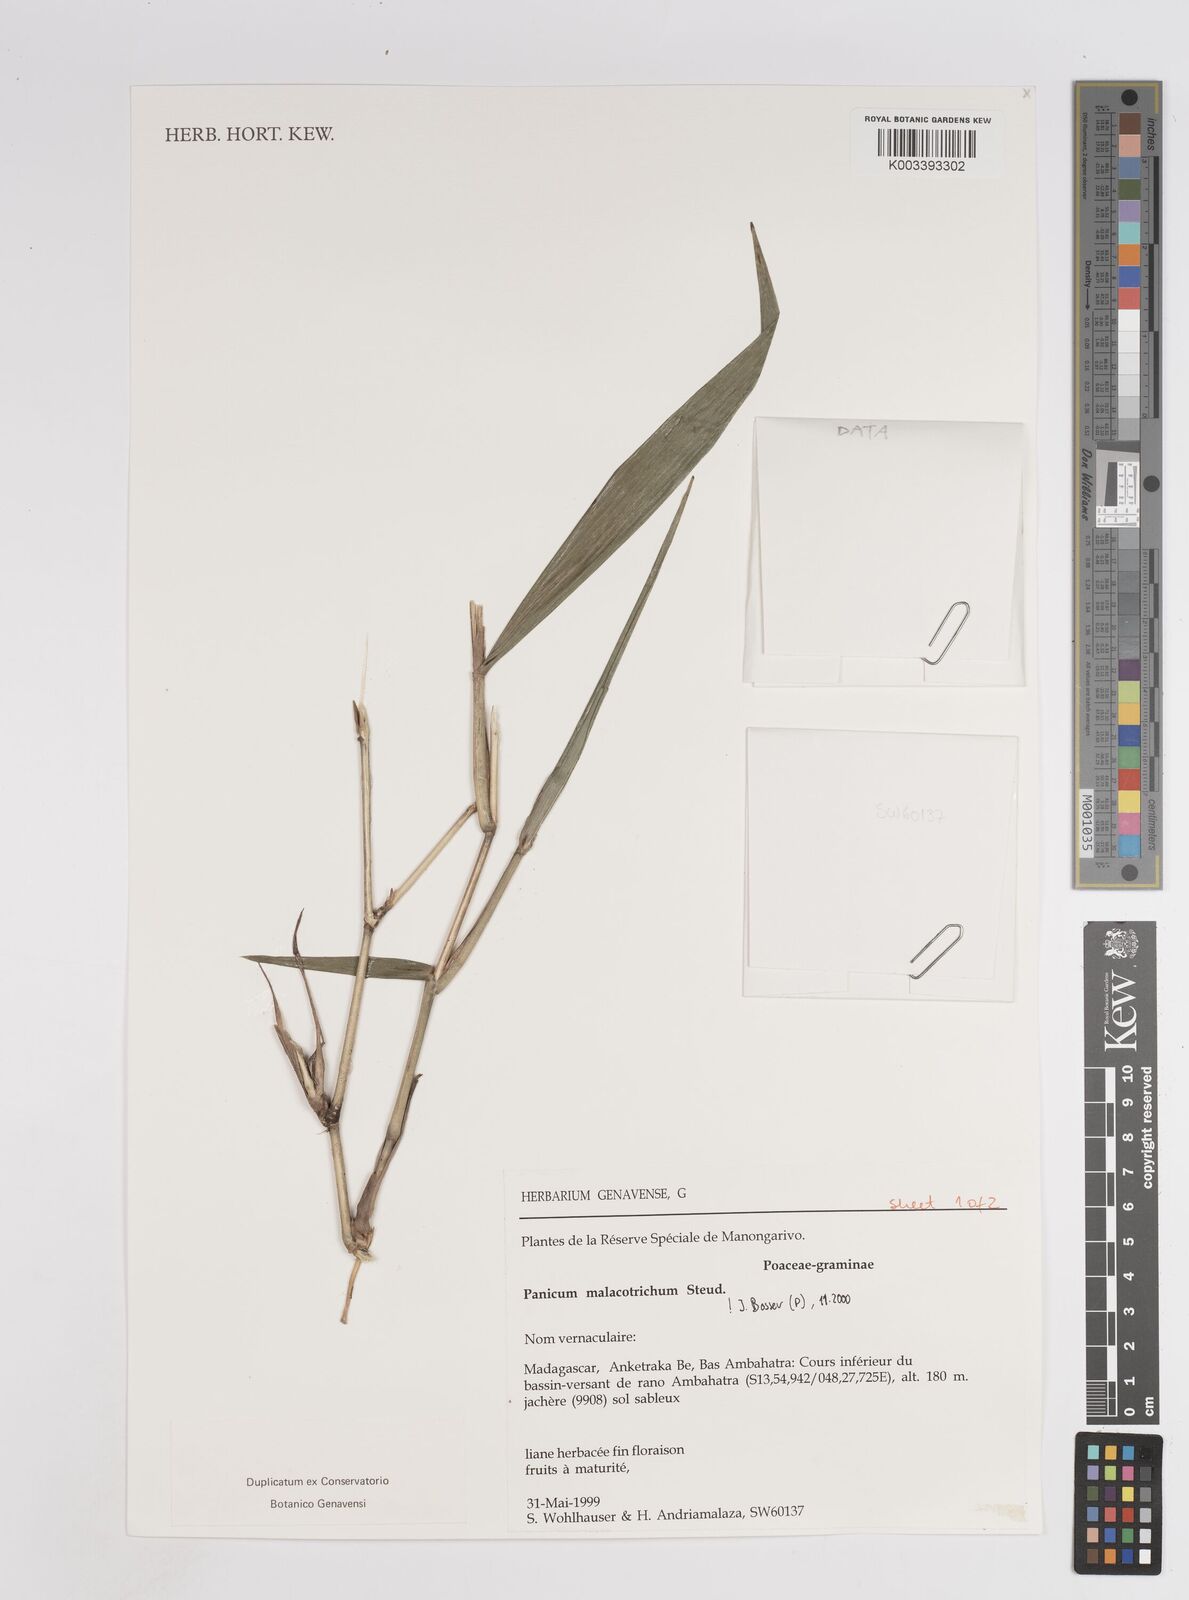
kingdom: Plantae
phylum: Tracheophyta
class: Liliopsida
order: Poales
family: Poaceae
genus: Panicum
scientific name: Panicum malacotrichum
